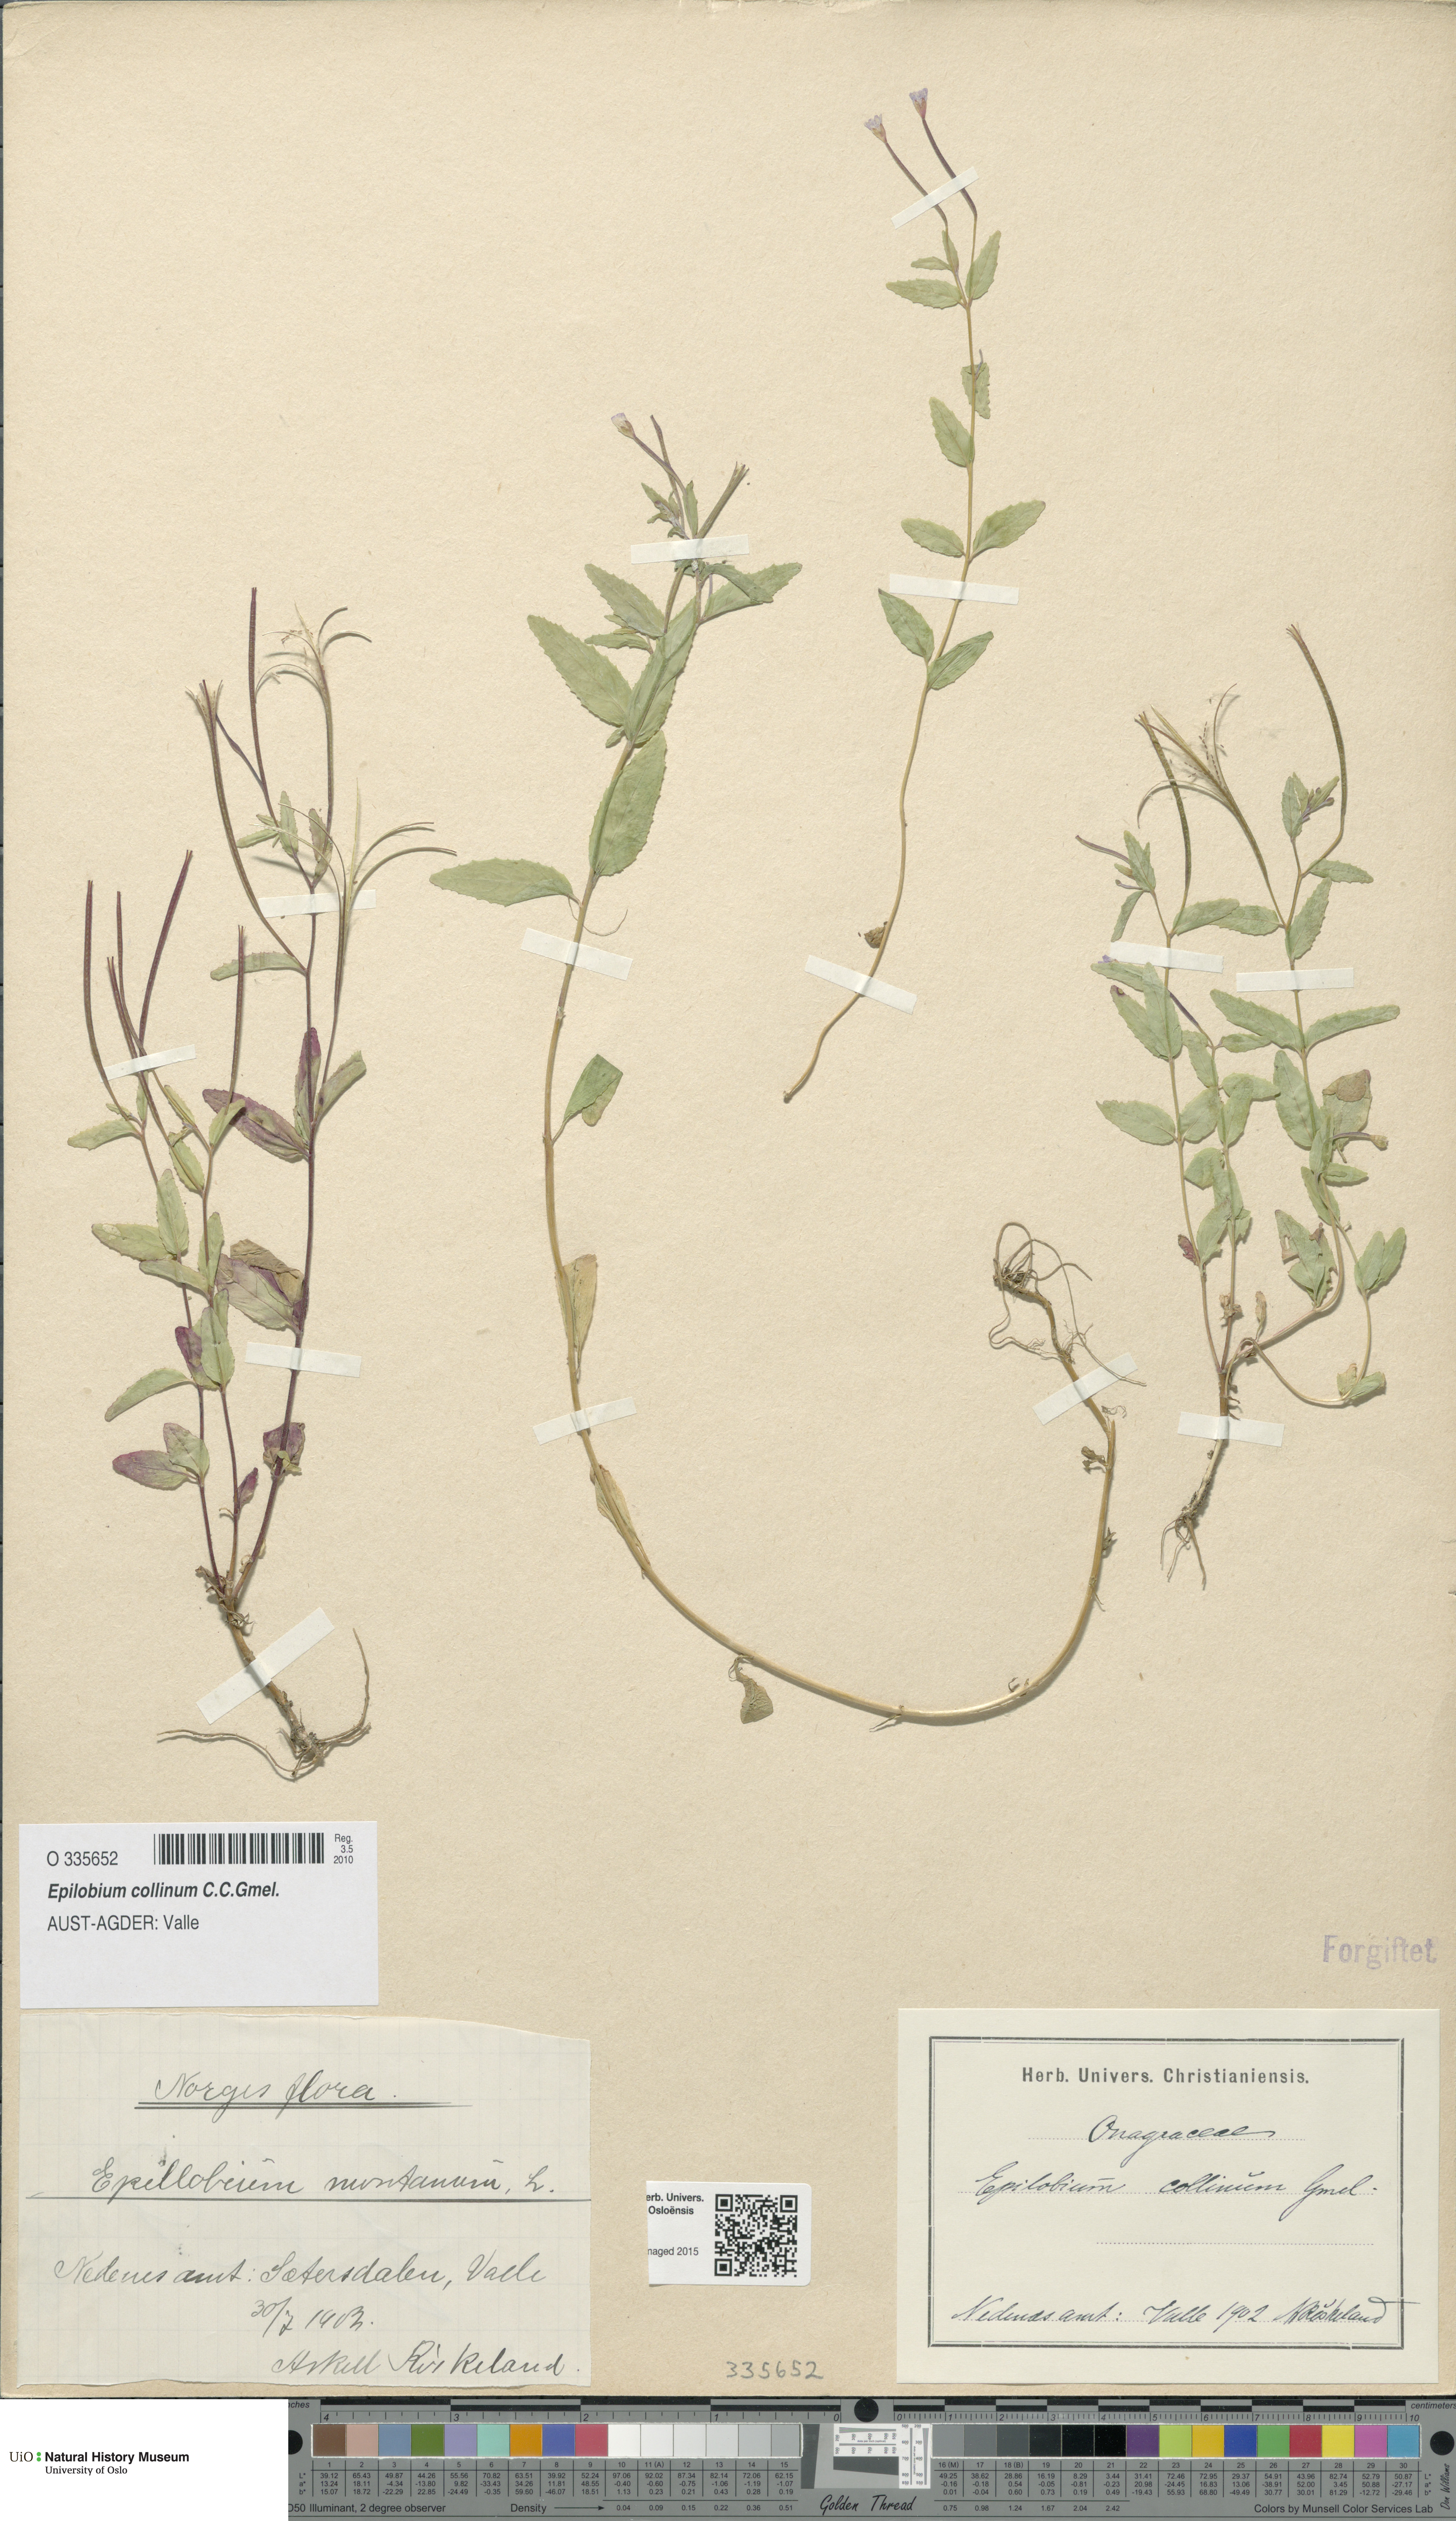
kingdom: Plantae
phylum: Tracheophyta
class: Magnoliopsida
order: Myrtales
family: Onagraceae
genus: Epilobium
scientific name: Epilobium collinum
